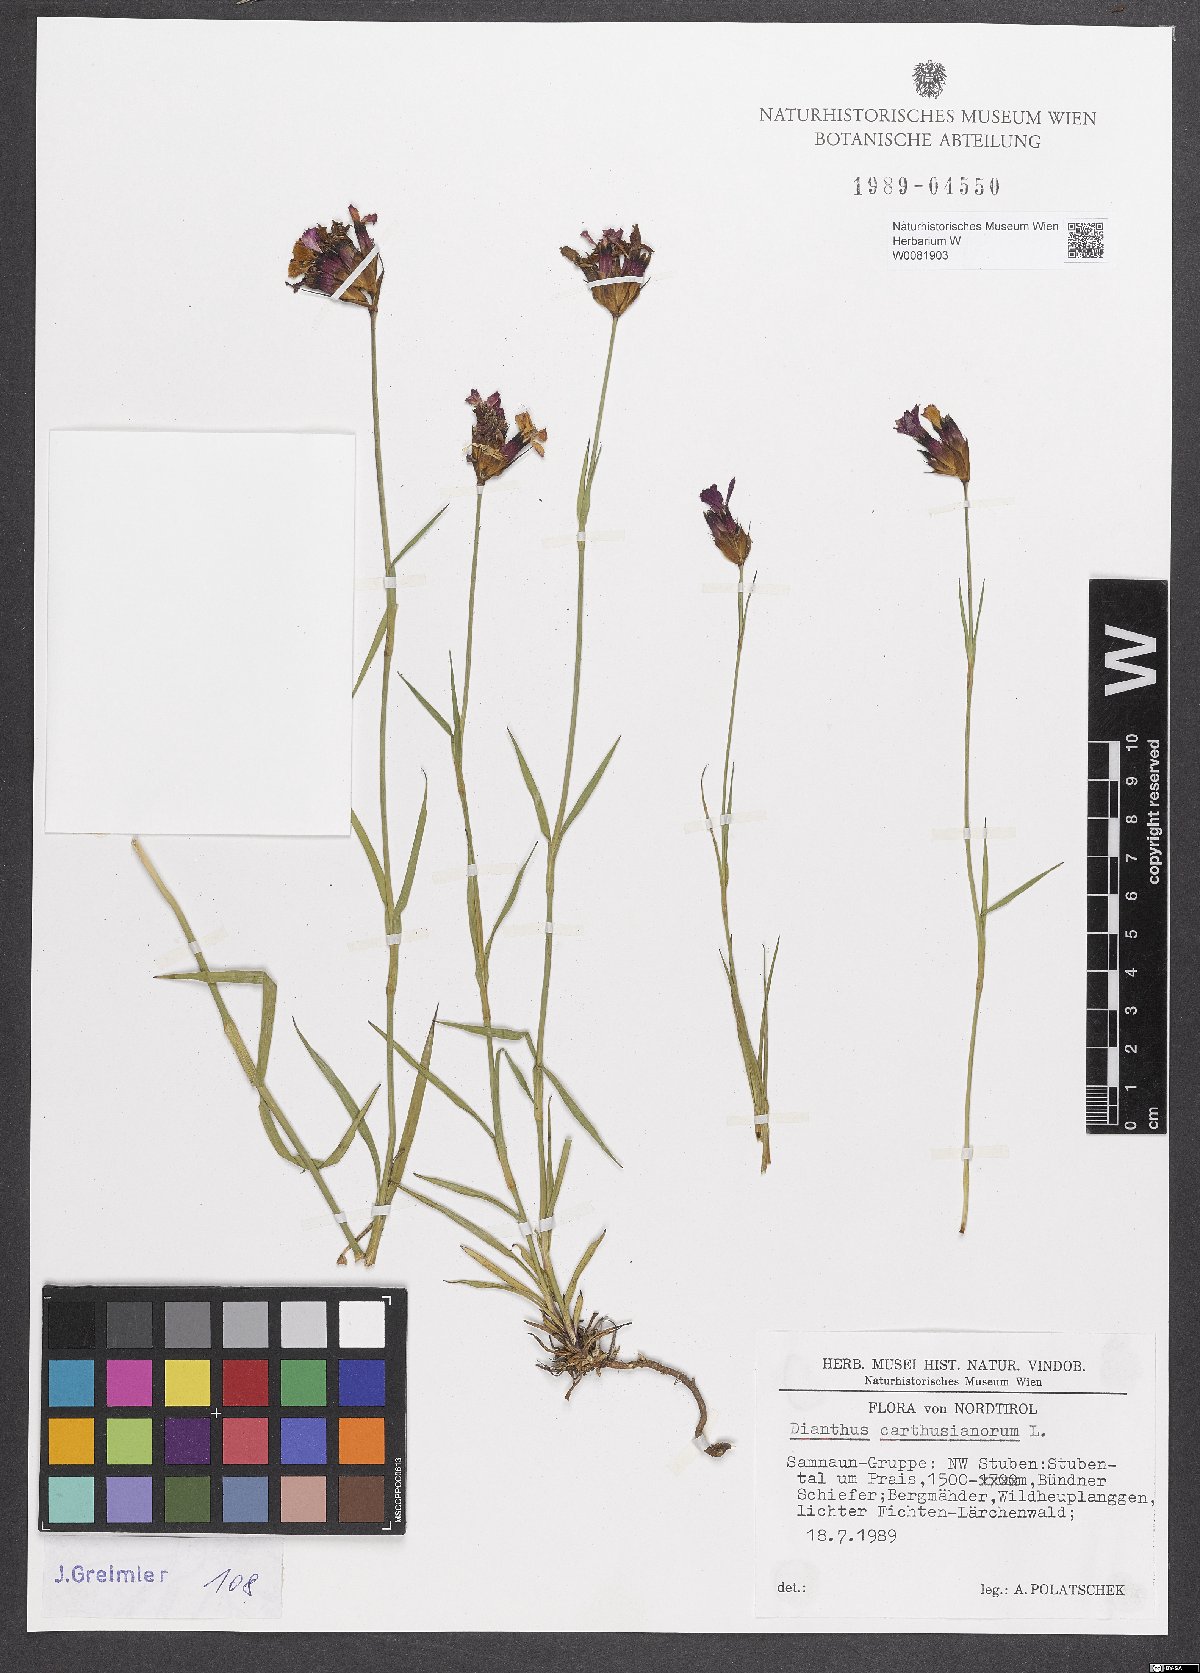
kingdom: Plantae
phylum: Tracheophyta
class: Magnoliopsida
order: Caryophyllales
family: Caryophyllaceae
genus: Dianthus
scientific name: Dianthus carthusianorum
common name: Carthusian pink
